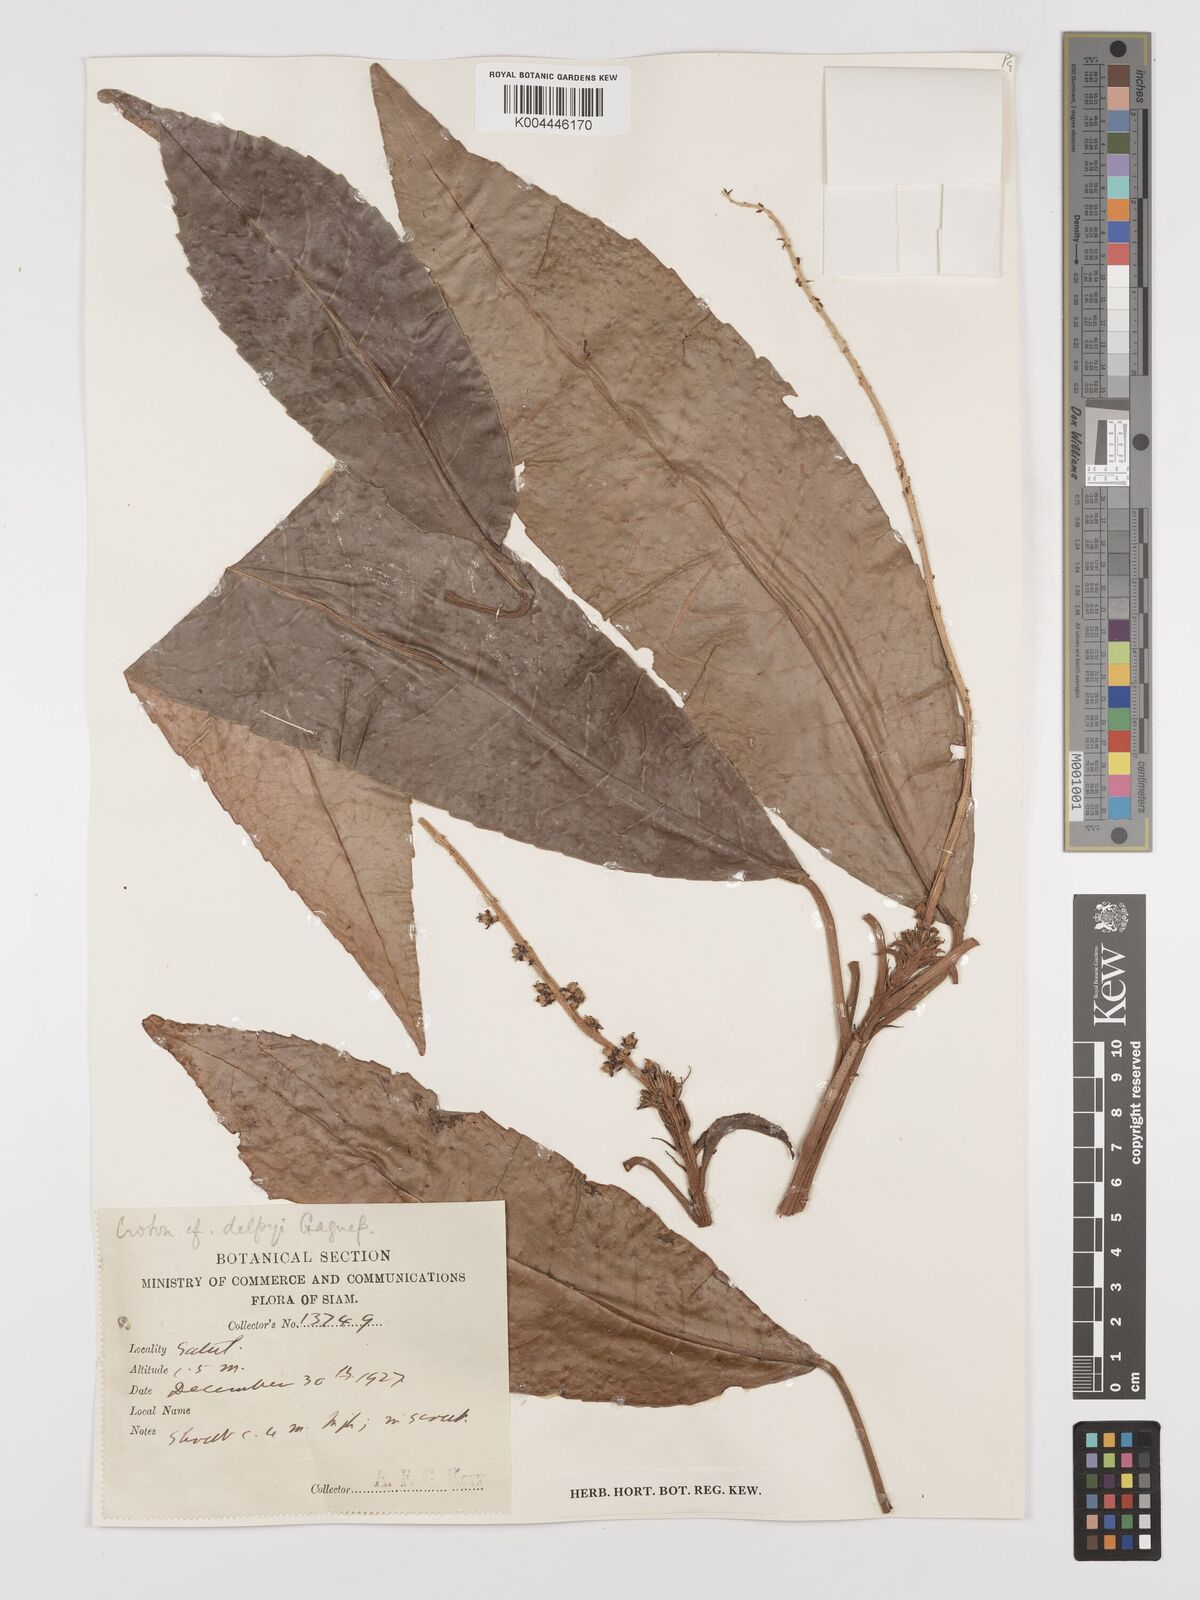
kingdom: Plantae
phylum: Tracheophyta
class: Magnoliopsida
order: Malpighiales
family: Euphorbiaceae
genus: Croton
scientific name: Croton delpyi
